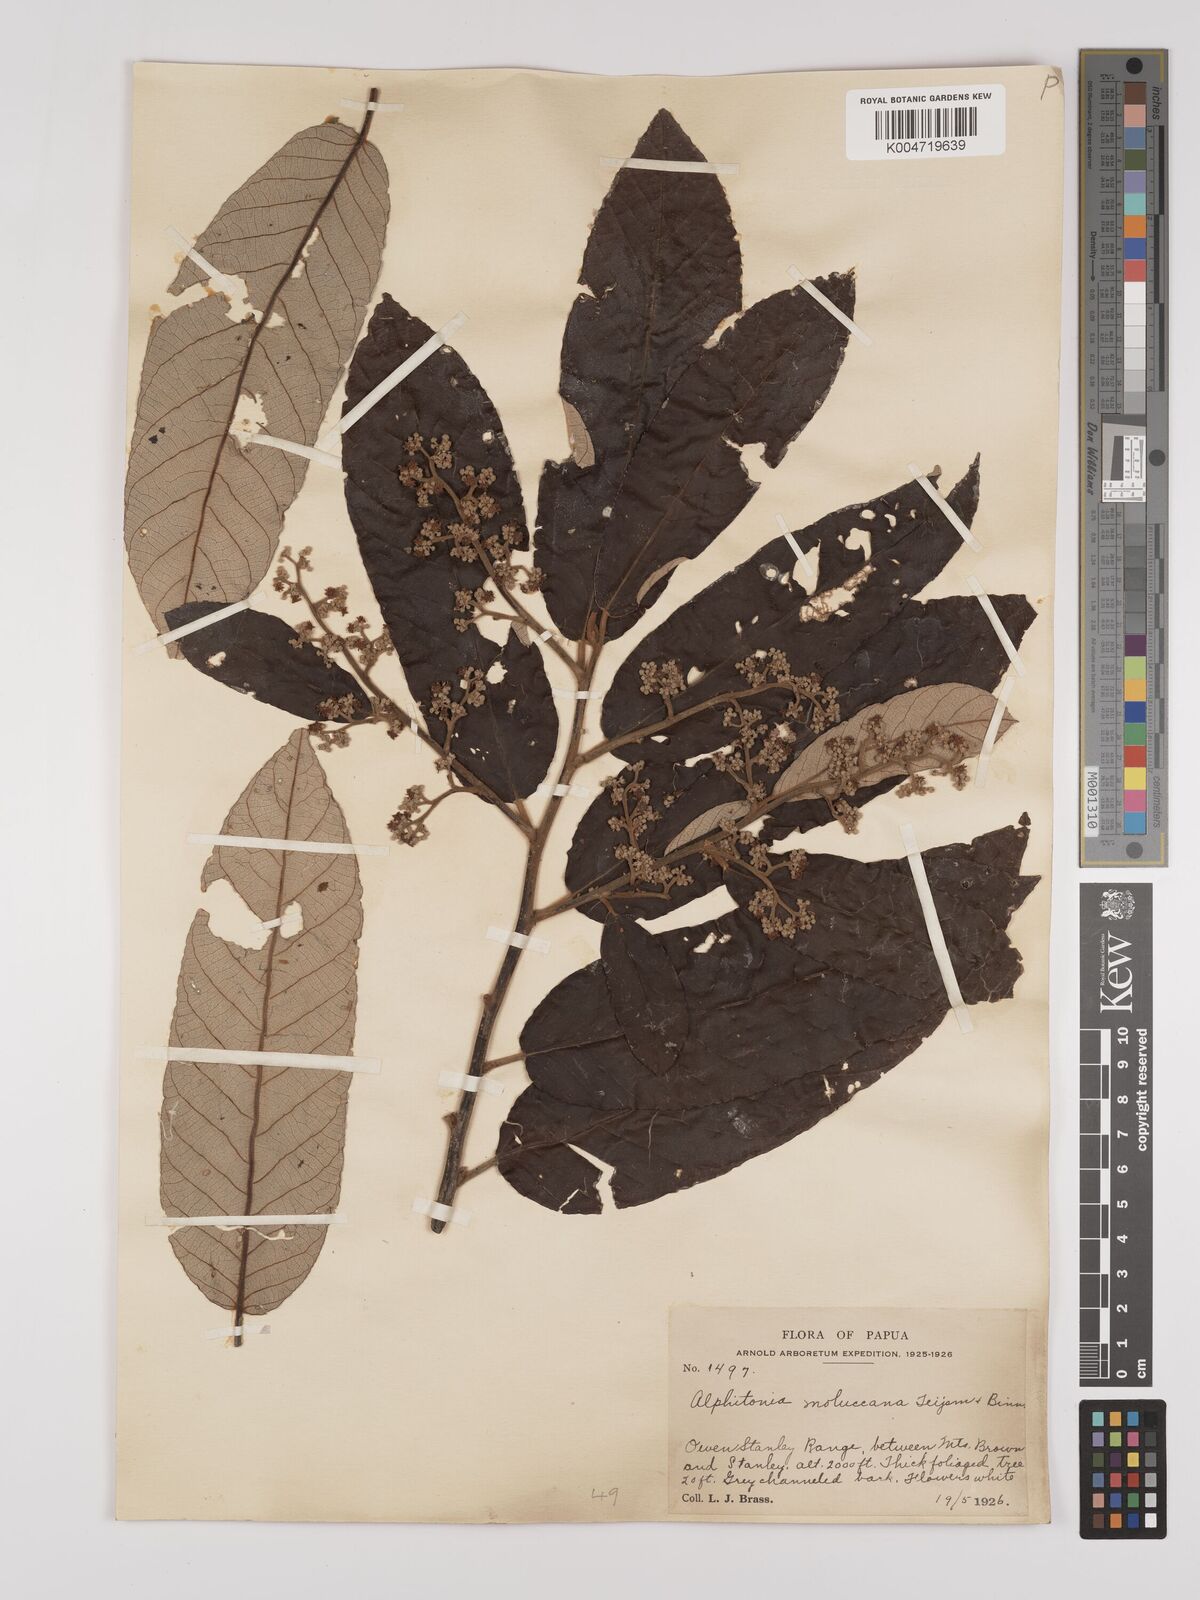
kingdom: Plantae
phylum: Tracheophyta
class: Magnoliopsida
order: Rosales
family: Rhamnaceae
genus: Alphitonia
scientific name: Alphitonia incana
